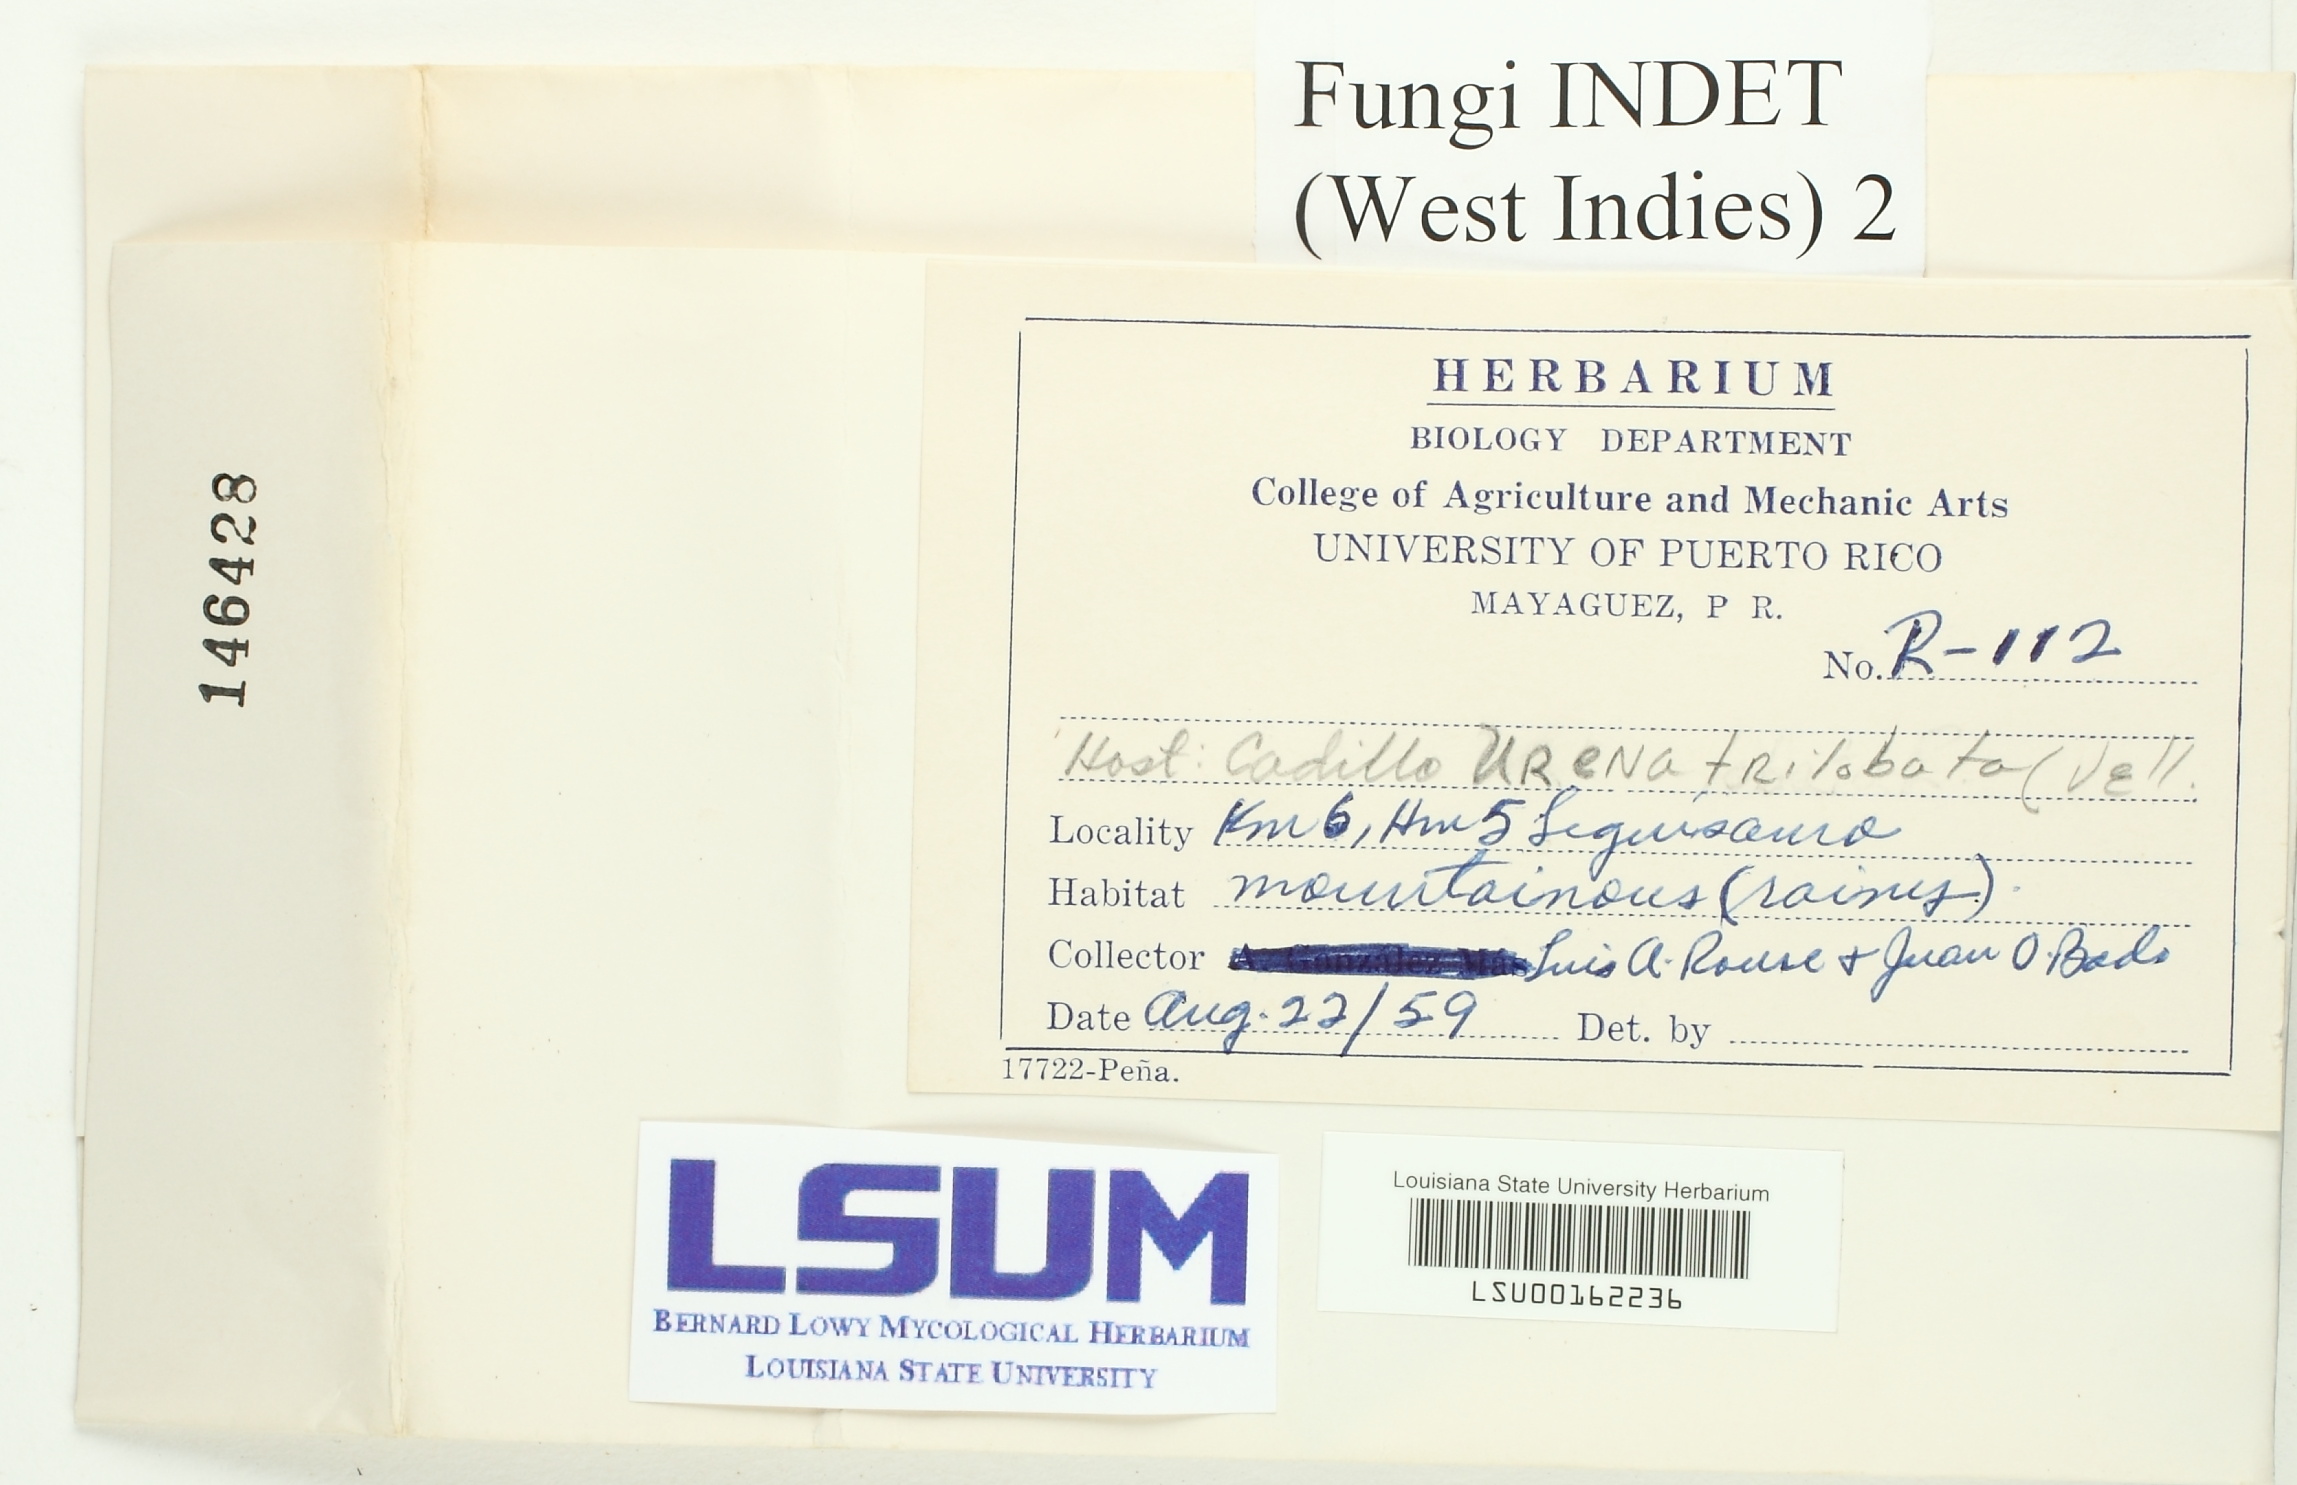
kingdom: Fungi
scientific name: Fungi
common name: Fungi
